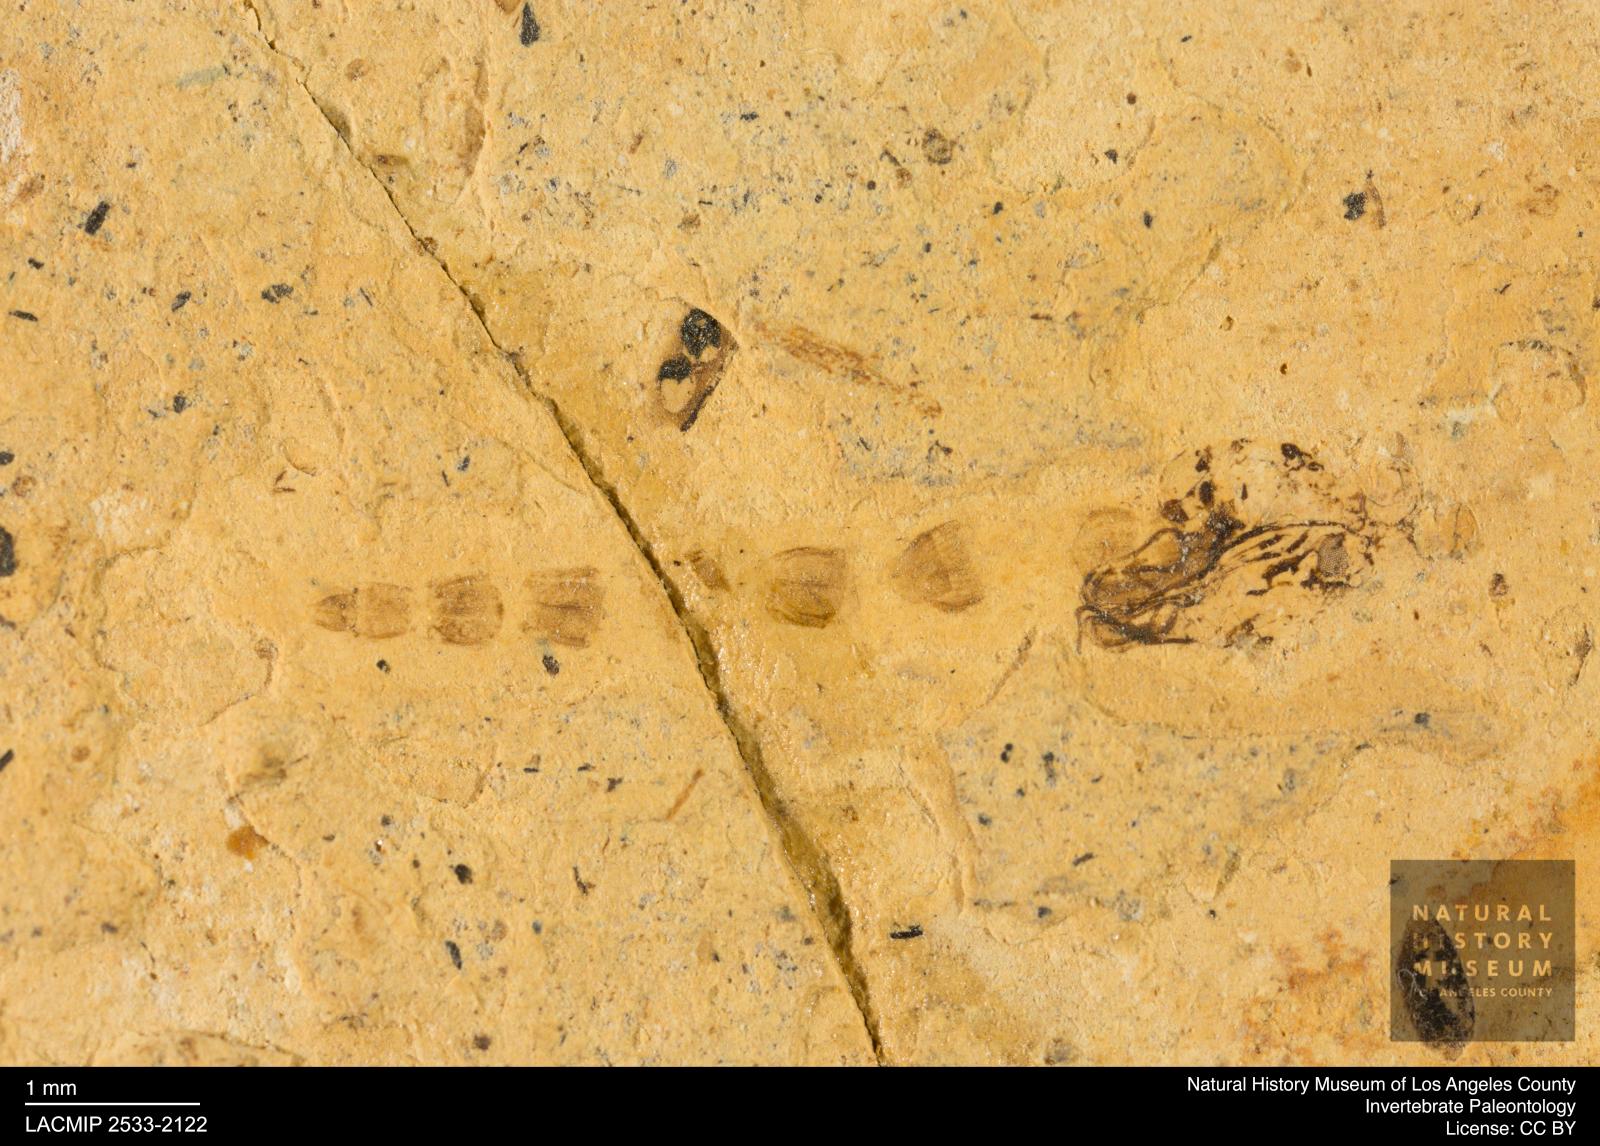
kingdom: Animalia
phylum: Arthropoda
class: Insecta
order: Diptera
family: Chironomidae
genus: Pelopiina
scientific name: Pelopiina
